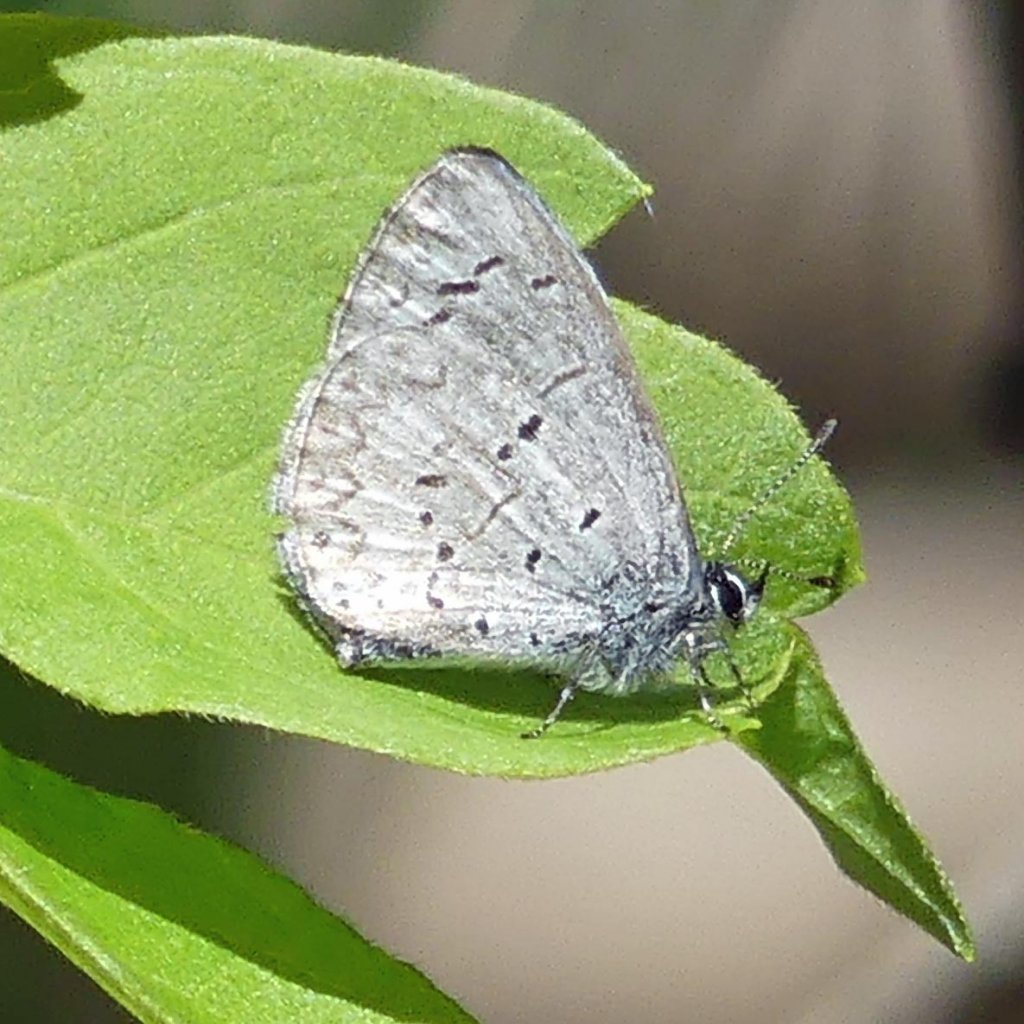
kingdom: Animalia
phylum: Arthropoda
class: Insecta
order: Lepidoptera
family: Lycaenidae
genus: Celastrina
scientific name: Celastrina
